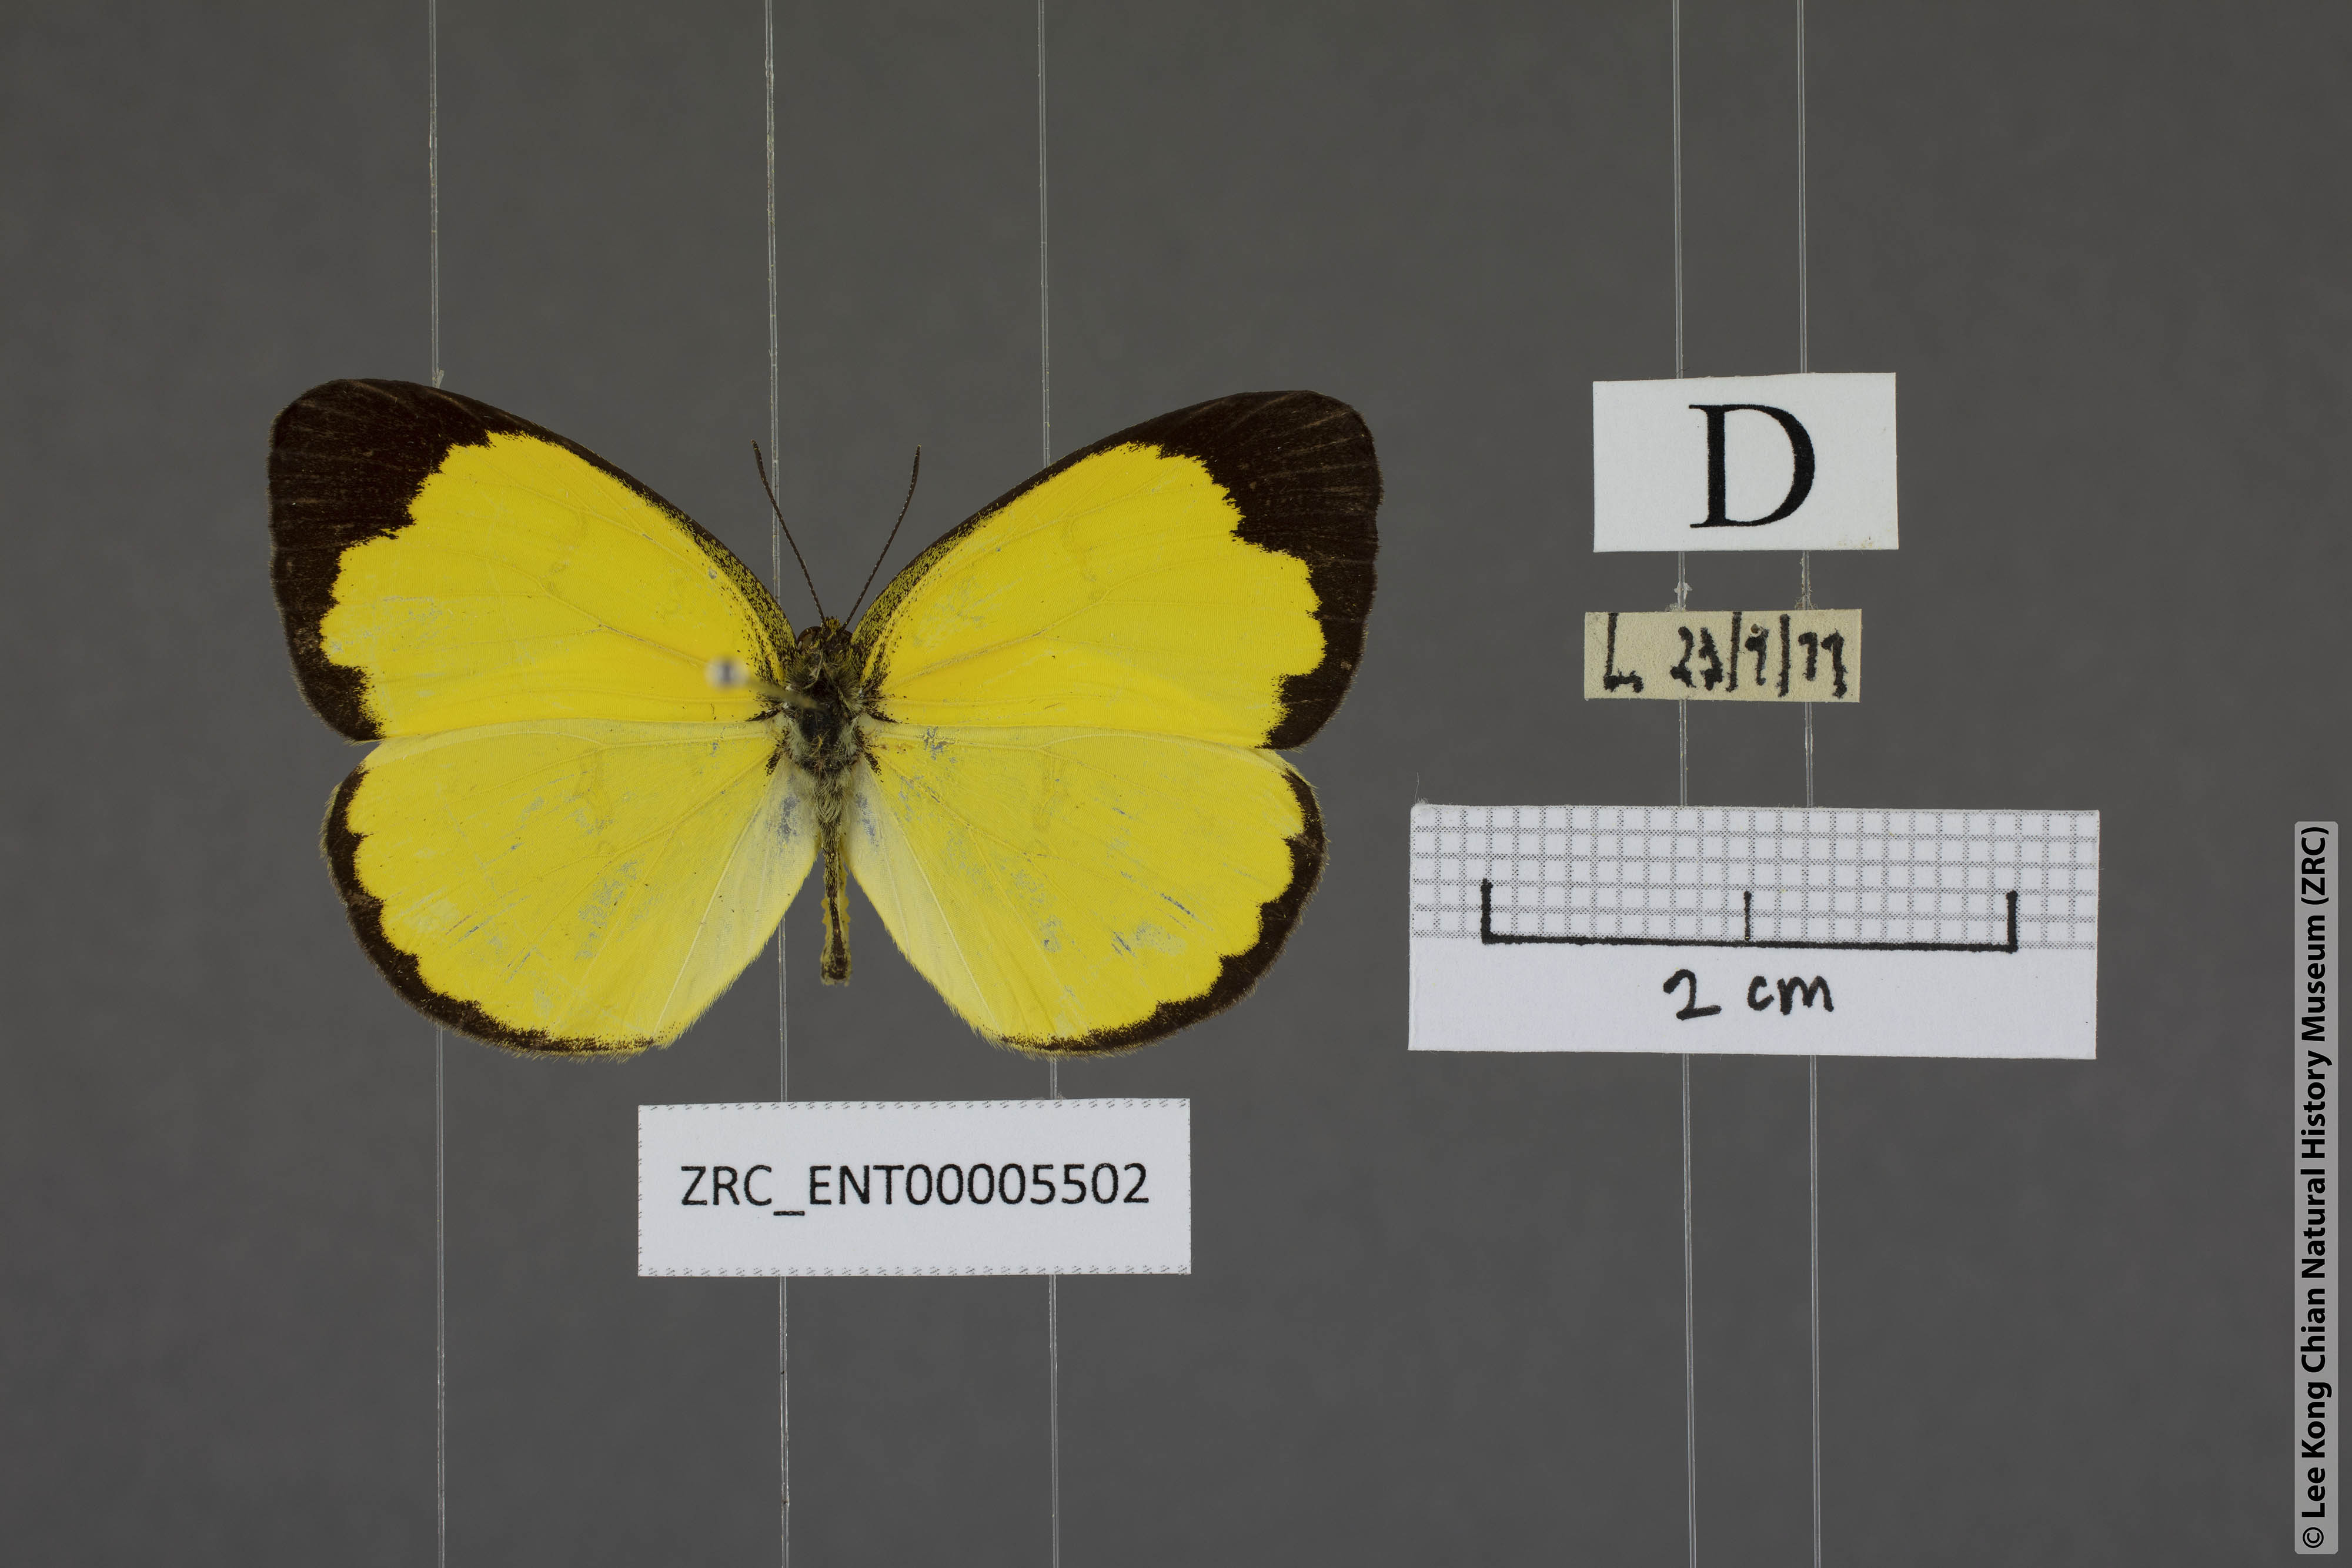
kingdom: Animalia
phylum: Arthropoda
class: Insecta
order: Lepidoptera
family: Pieridae
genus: Eurema
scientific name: Eurema lacteola
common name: Scarce grass yellow
